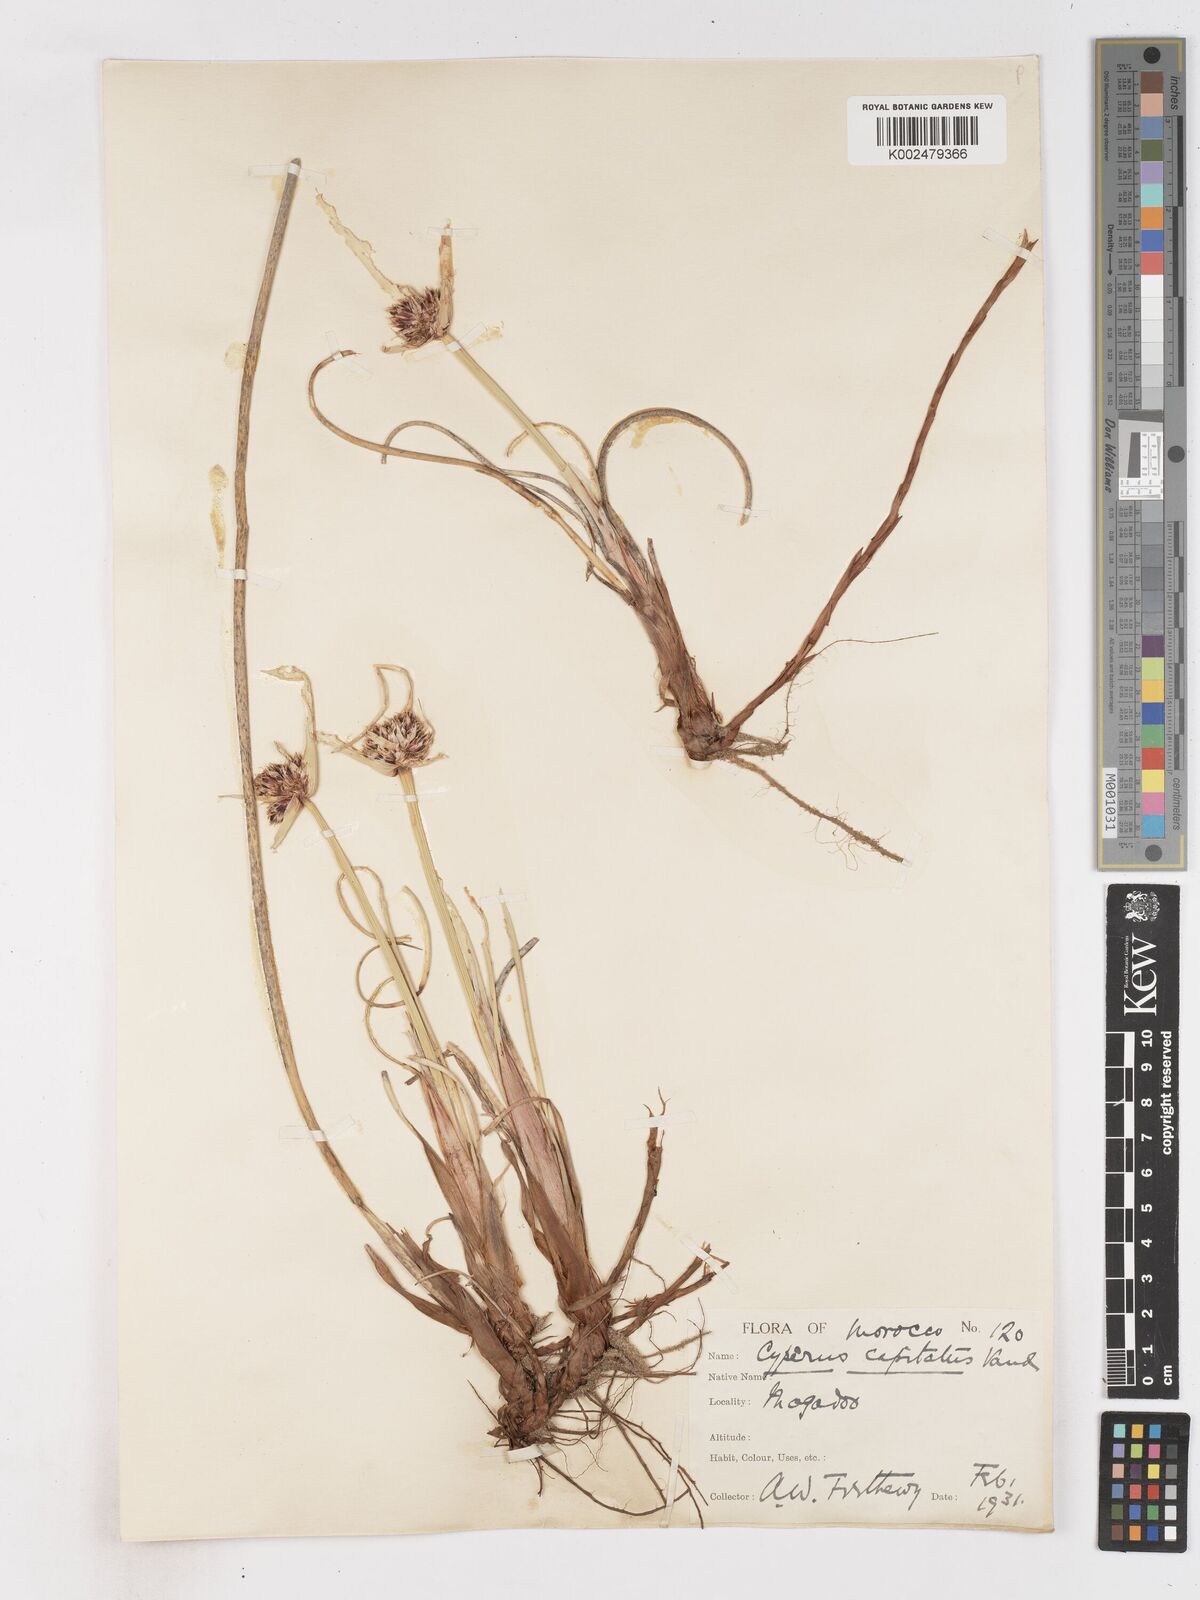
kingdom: Plantae
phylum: Tracheophyta
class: Liliopsida
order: Poales
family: Cyperaceae
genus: Cyperus
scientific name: Cyperus capitatus
